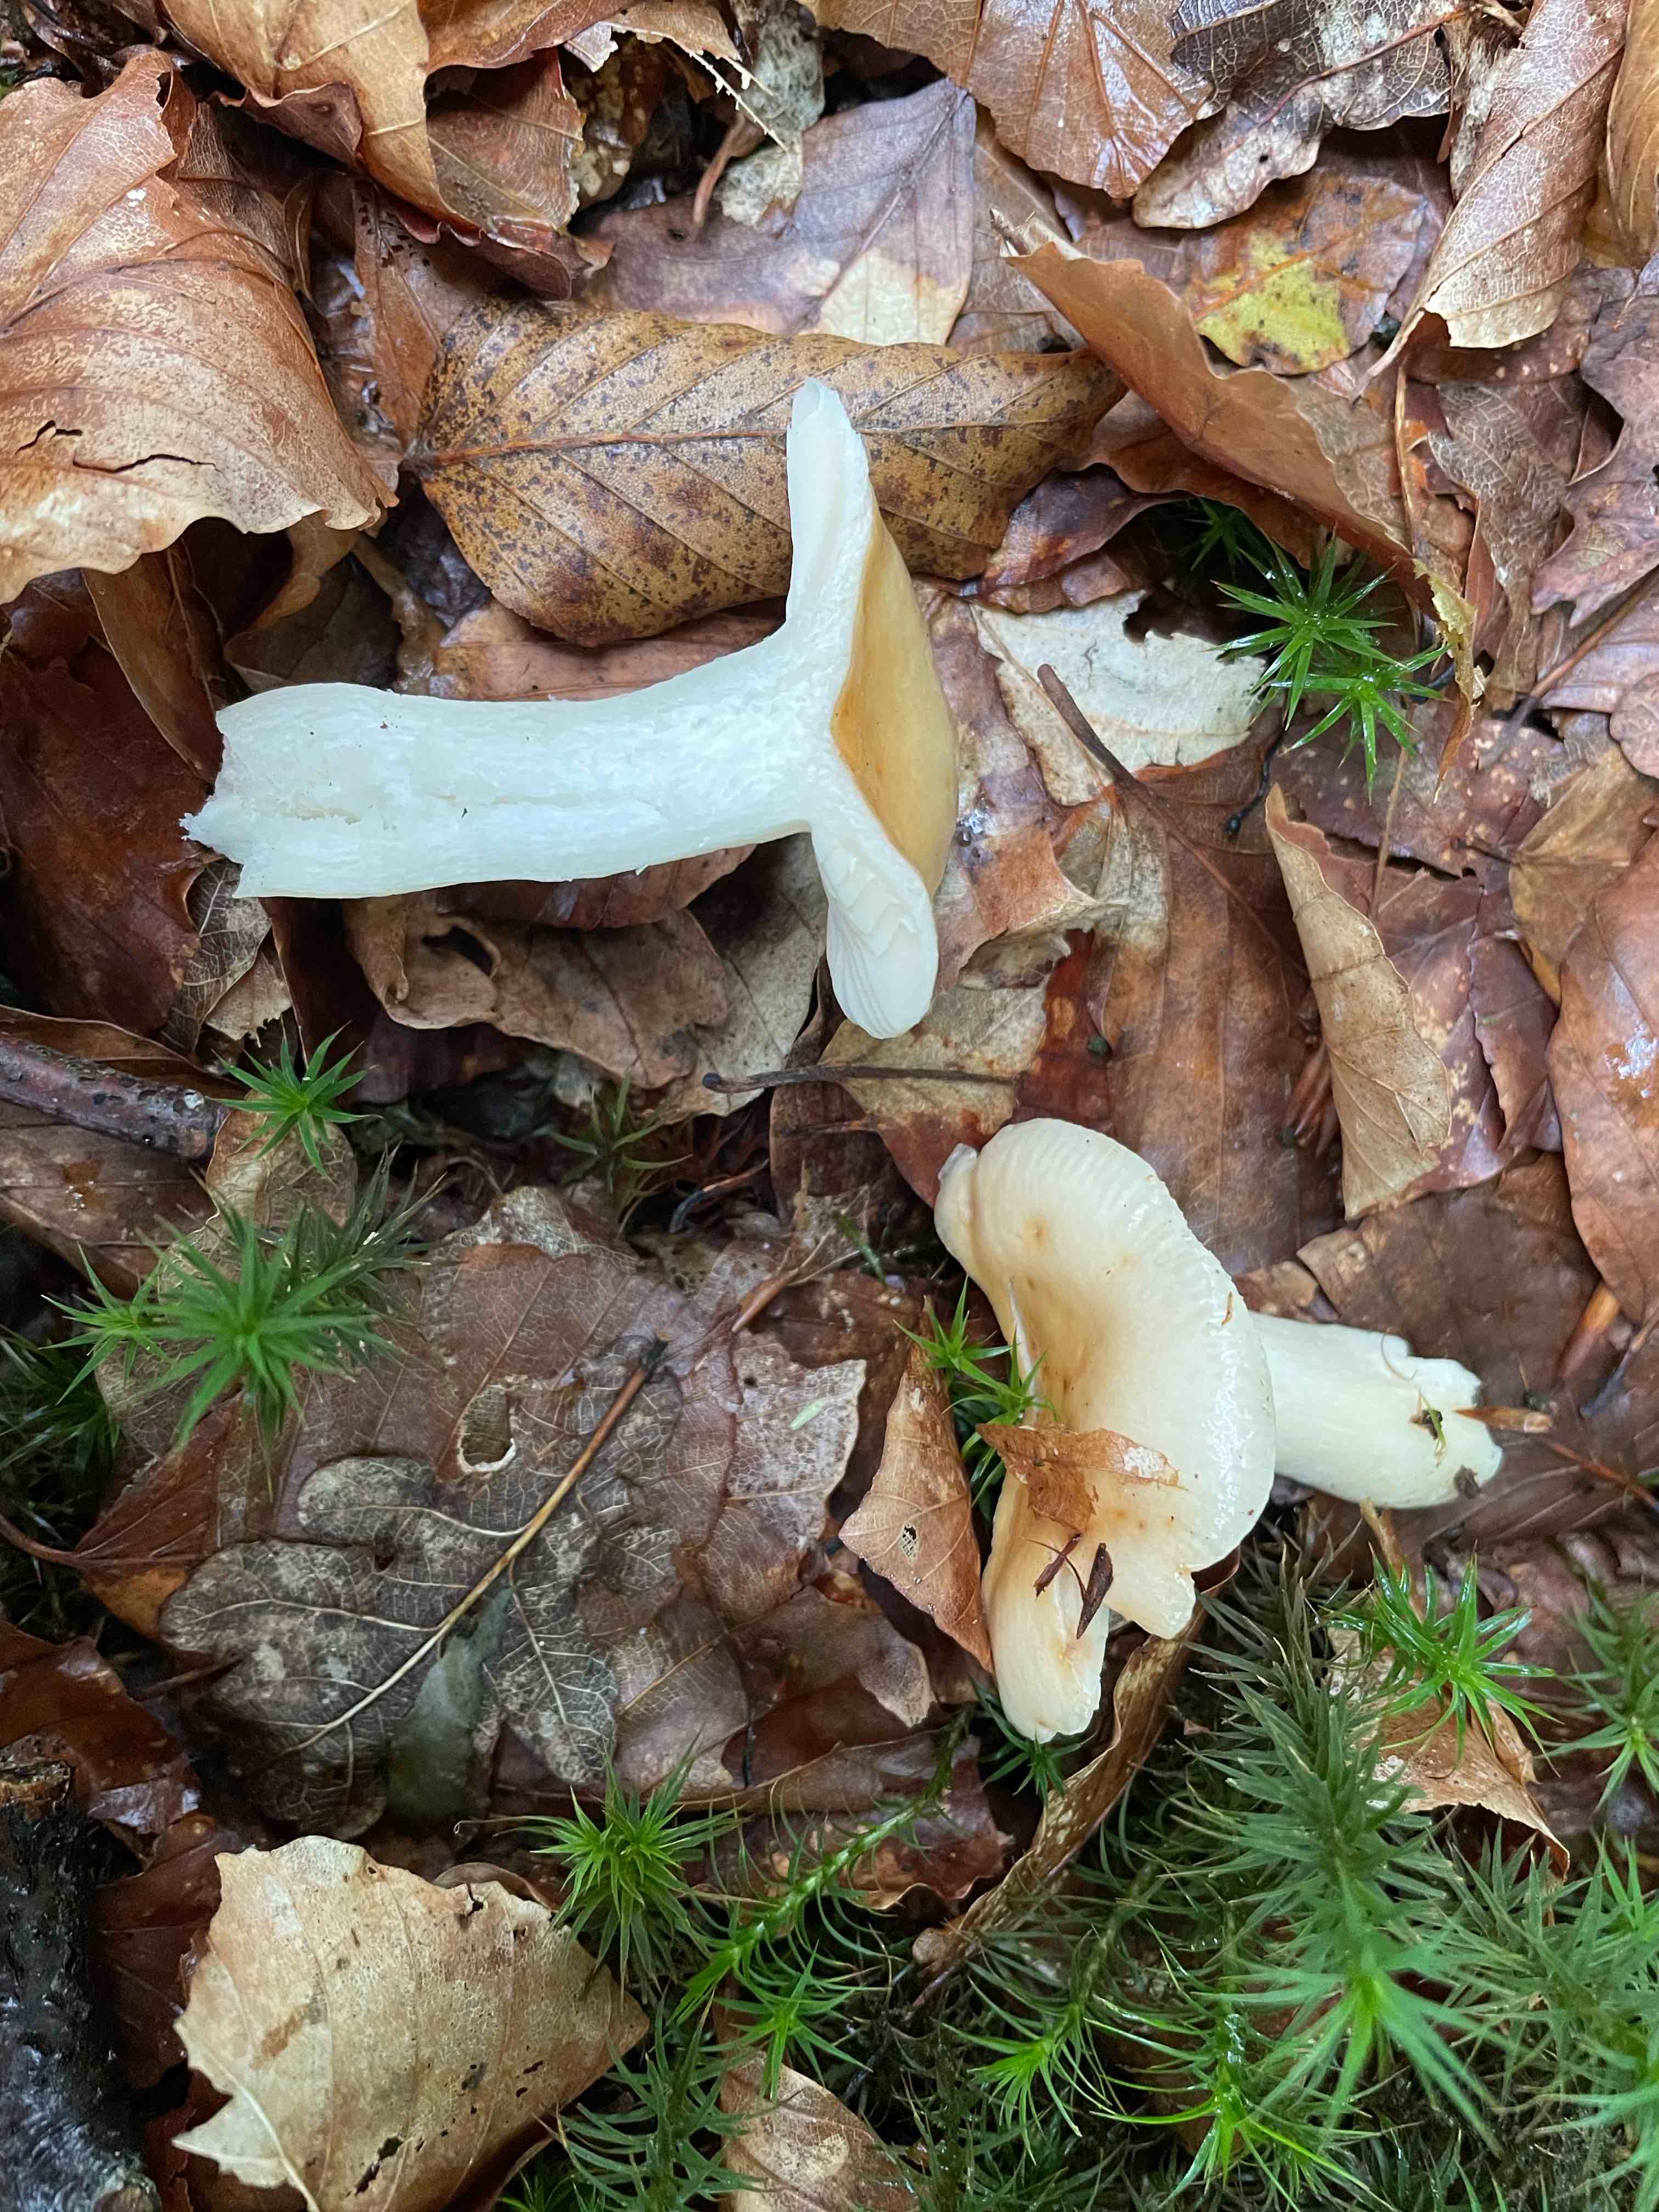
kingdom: Fungi
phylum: Basidiomycota
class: Agaricomycetes
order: Russulales
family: Russulaceae
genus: Russula
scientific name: Russula fellea
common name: galde-skørhat
